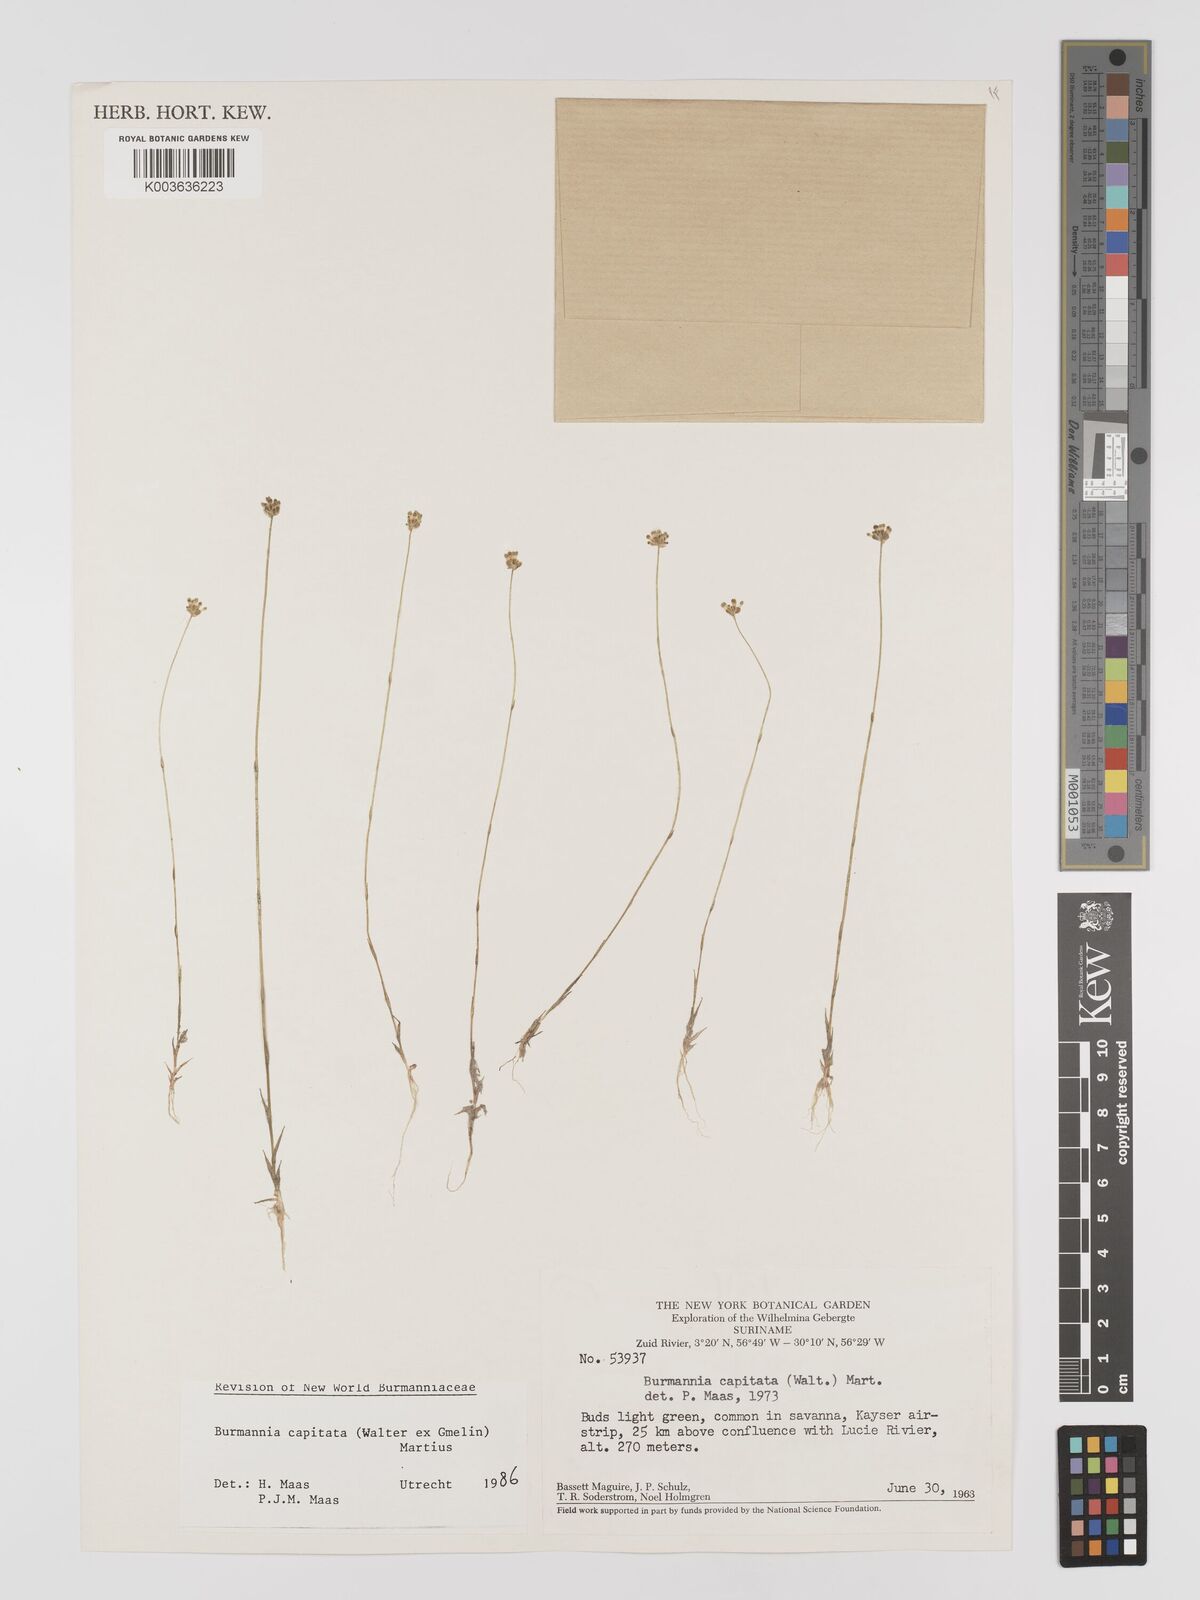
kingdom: Plantae
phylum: Tracheophyta
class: Liliopsida
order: Dioscoreales
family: Burmanniaceae
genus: Burmannia
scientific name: Burmannia capitata
